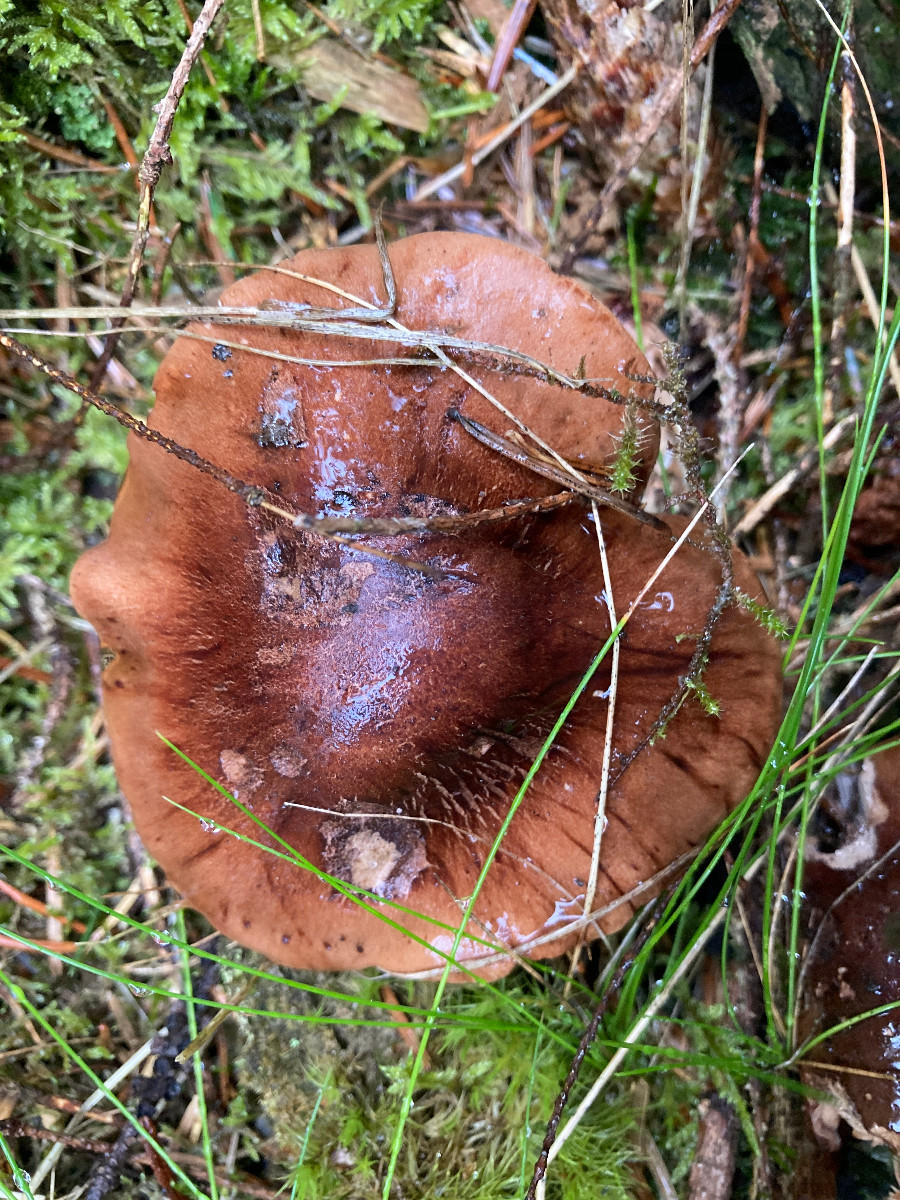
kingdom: Fungi
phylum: Basidiomycota
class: Agaricomycetes
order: Agaricales
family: Tricholomataceae
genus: Tricholoma
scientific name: Tricholoma fulvum
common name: birke-ridderhat
